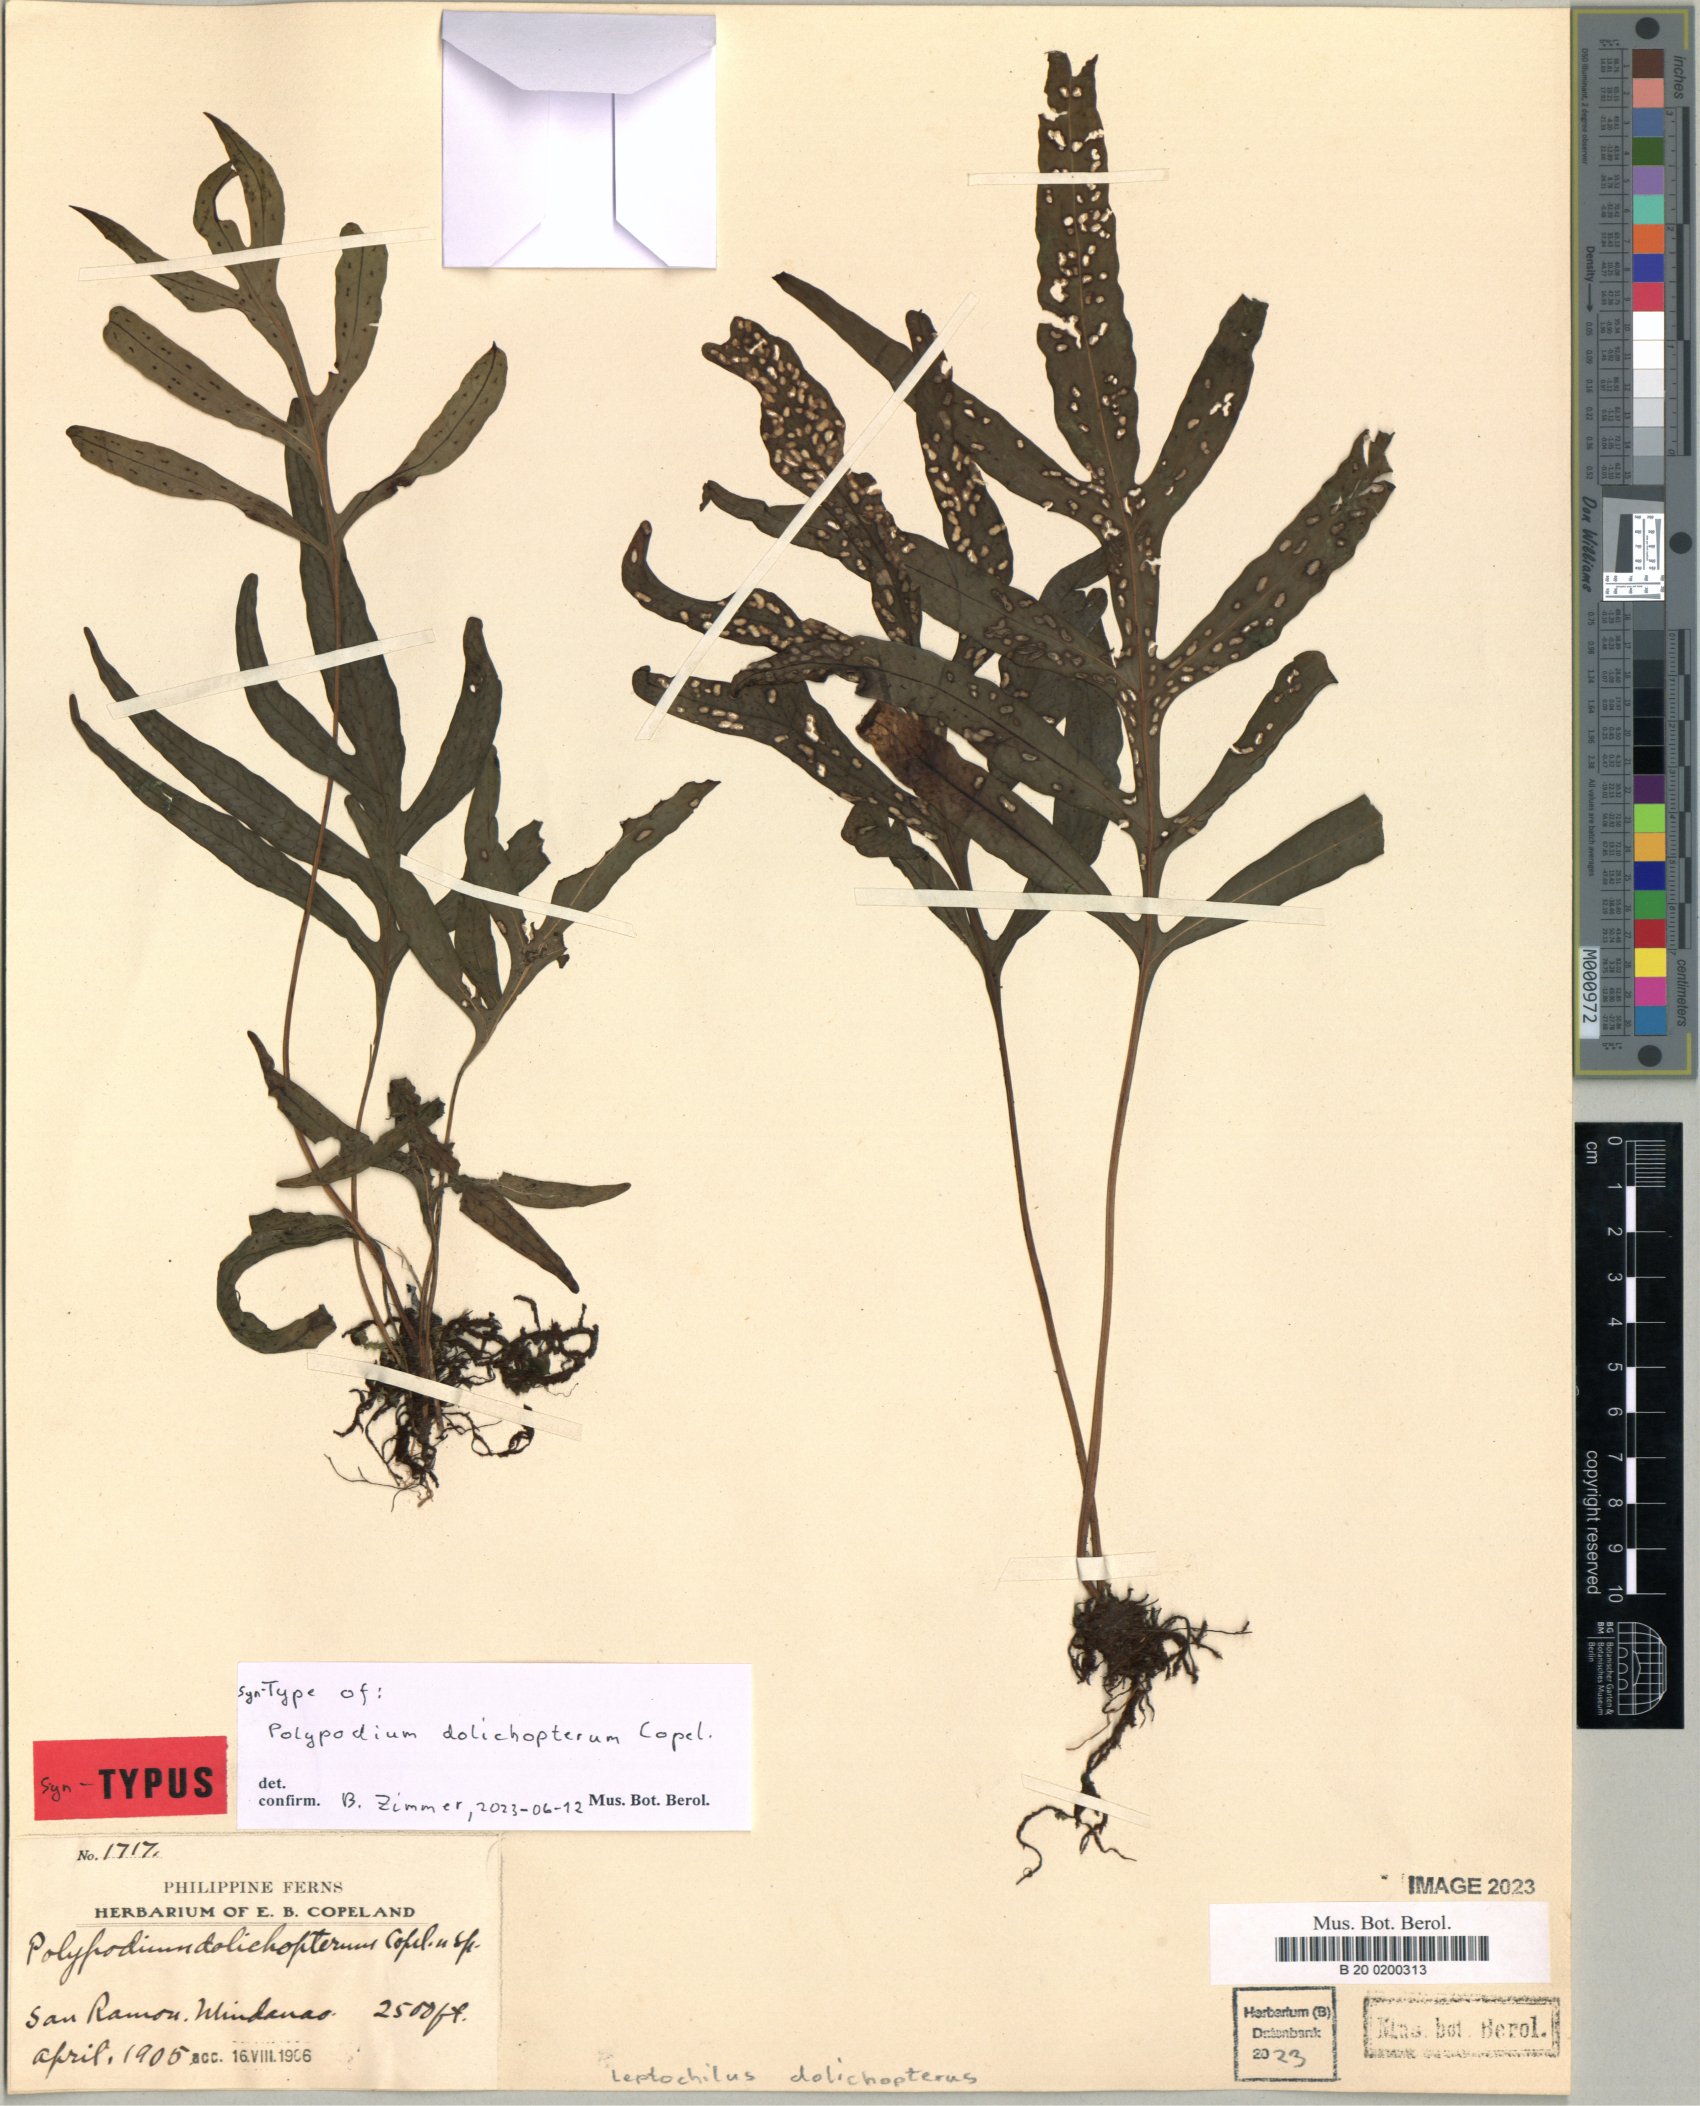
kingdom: Plantae
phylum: Tracheophyta
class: Polypodiopsida
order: Polypodiales
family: Polypodiaceae
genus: Leptochilus
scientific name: Leptochilus dolichopterus
